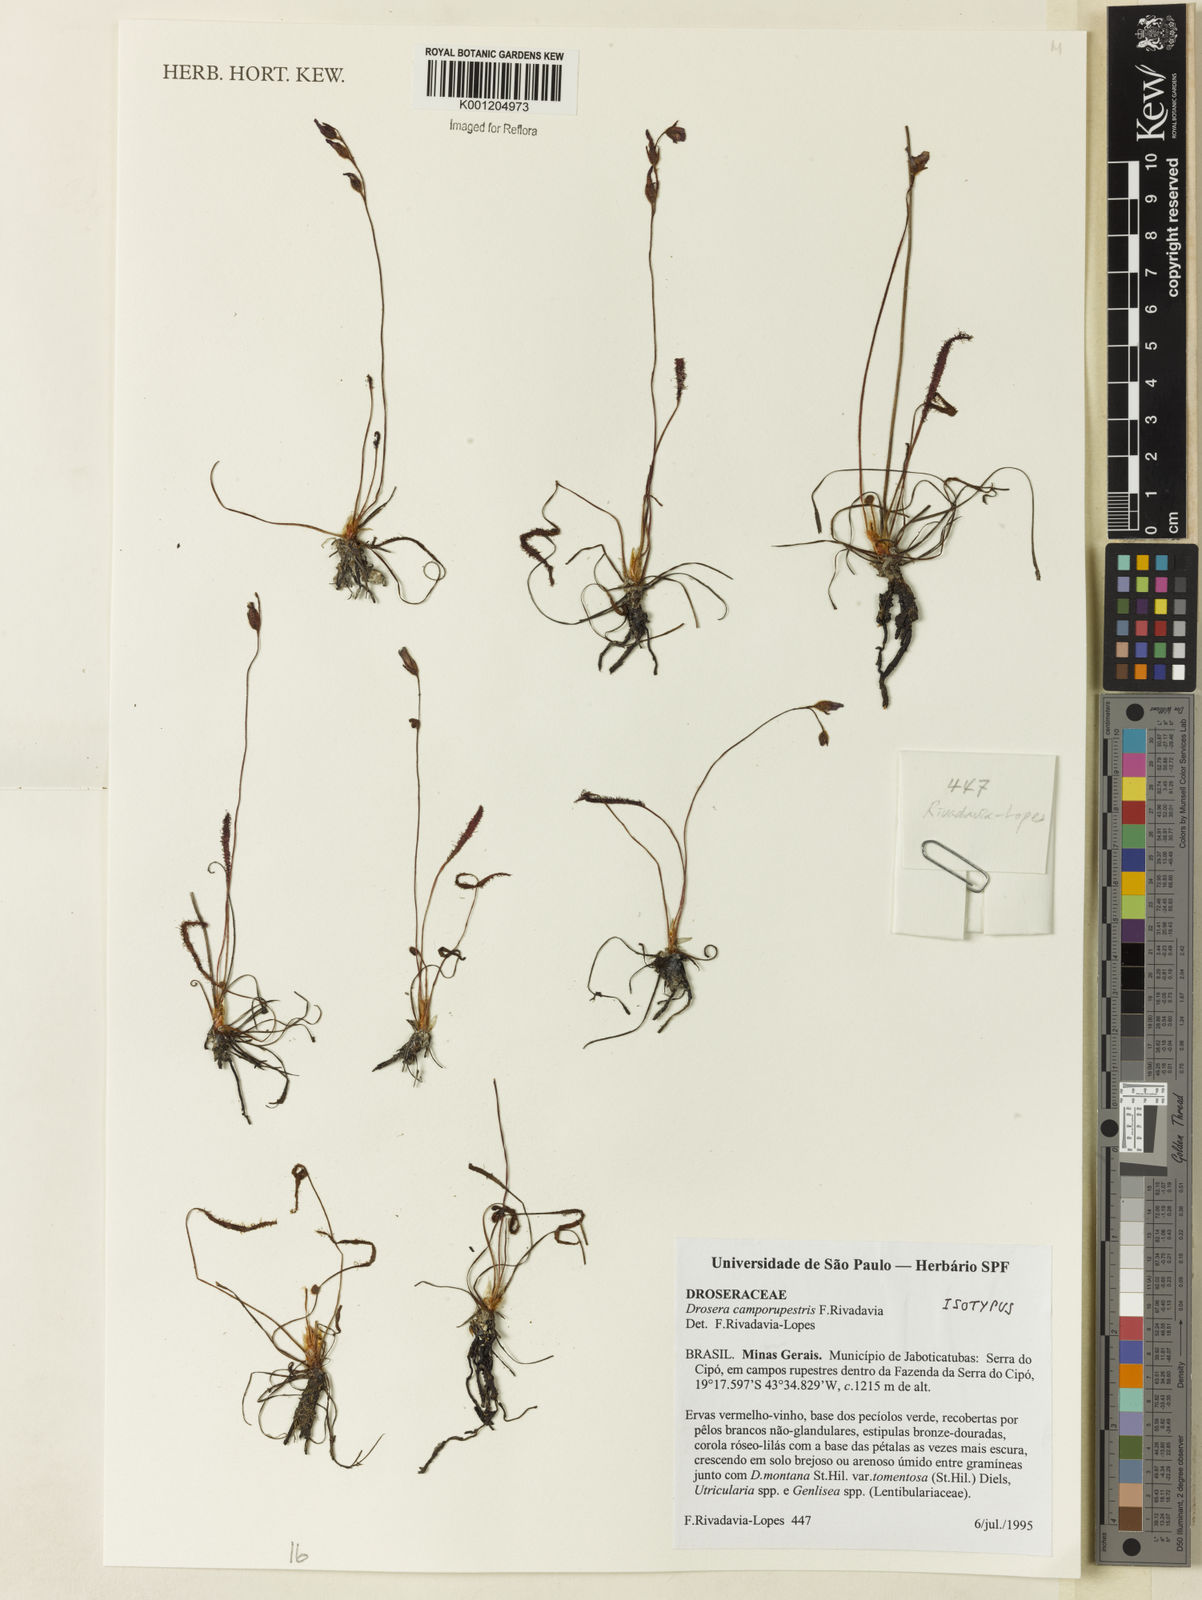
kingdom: Plantae
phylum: Tracheophyta
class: Magnoliopsida
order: Caryophyllales
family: Droseraceae
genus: Drosera
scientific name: Drosera camporupestris
